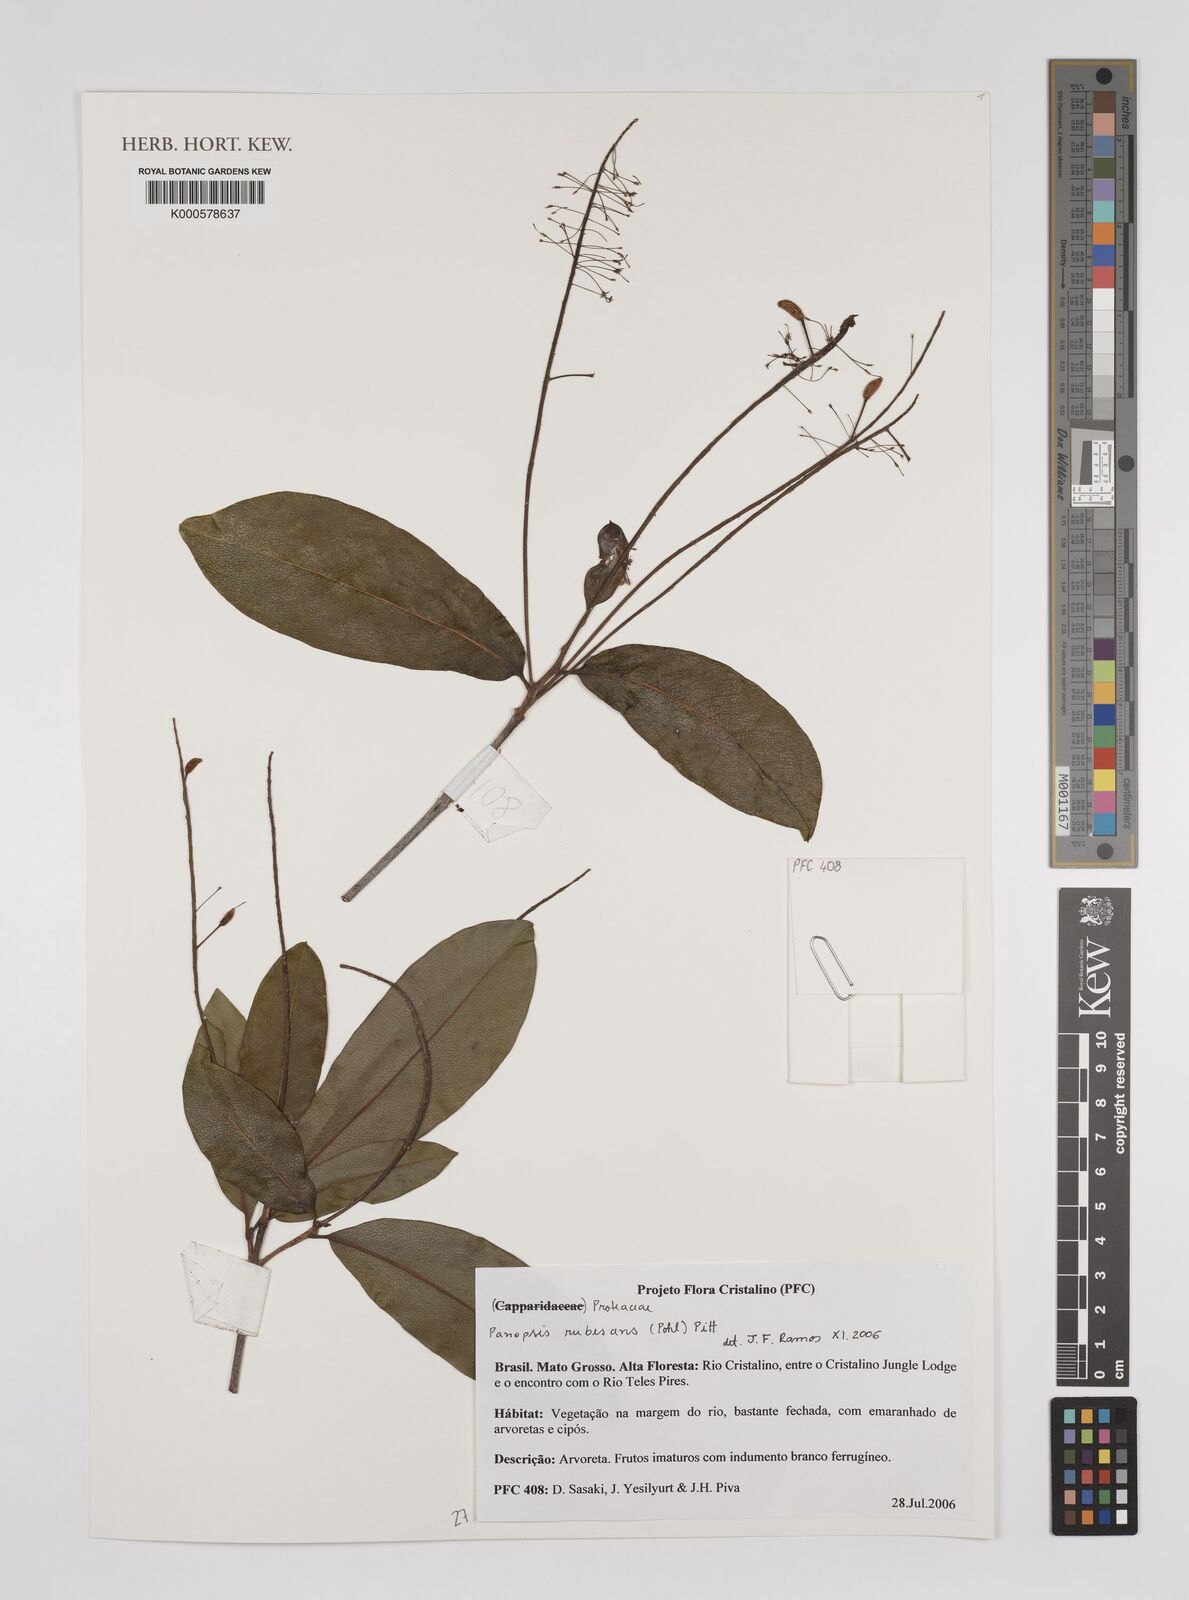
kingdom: Plantae
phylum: Tracheophyta
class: Magnoliopsida
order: Proteales
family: Proteaceae
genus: Panopsis
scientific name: Panopsis
